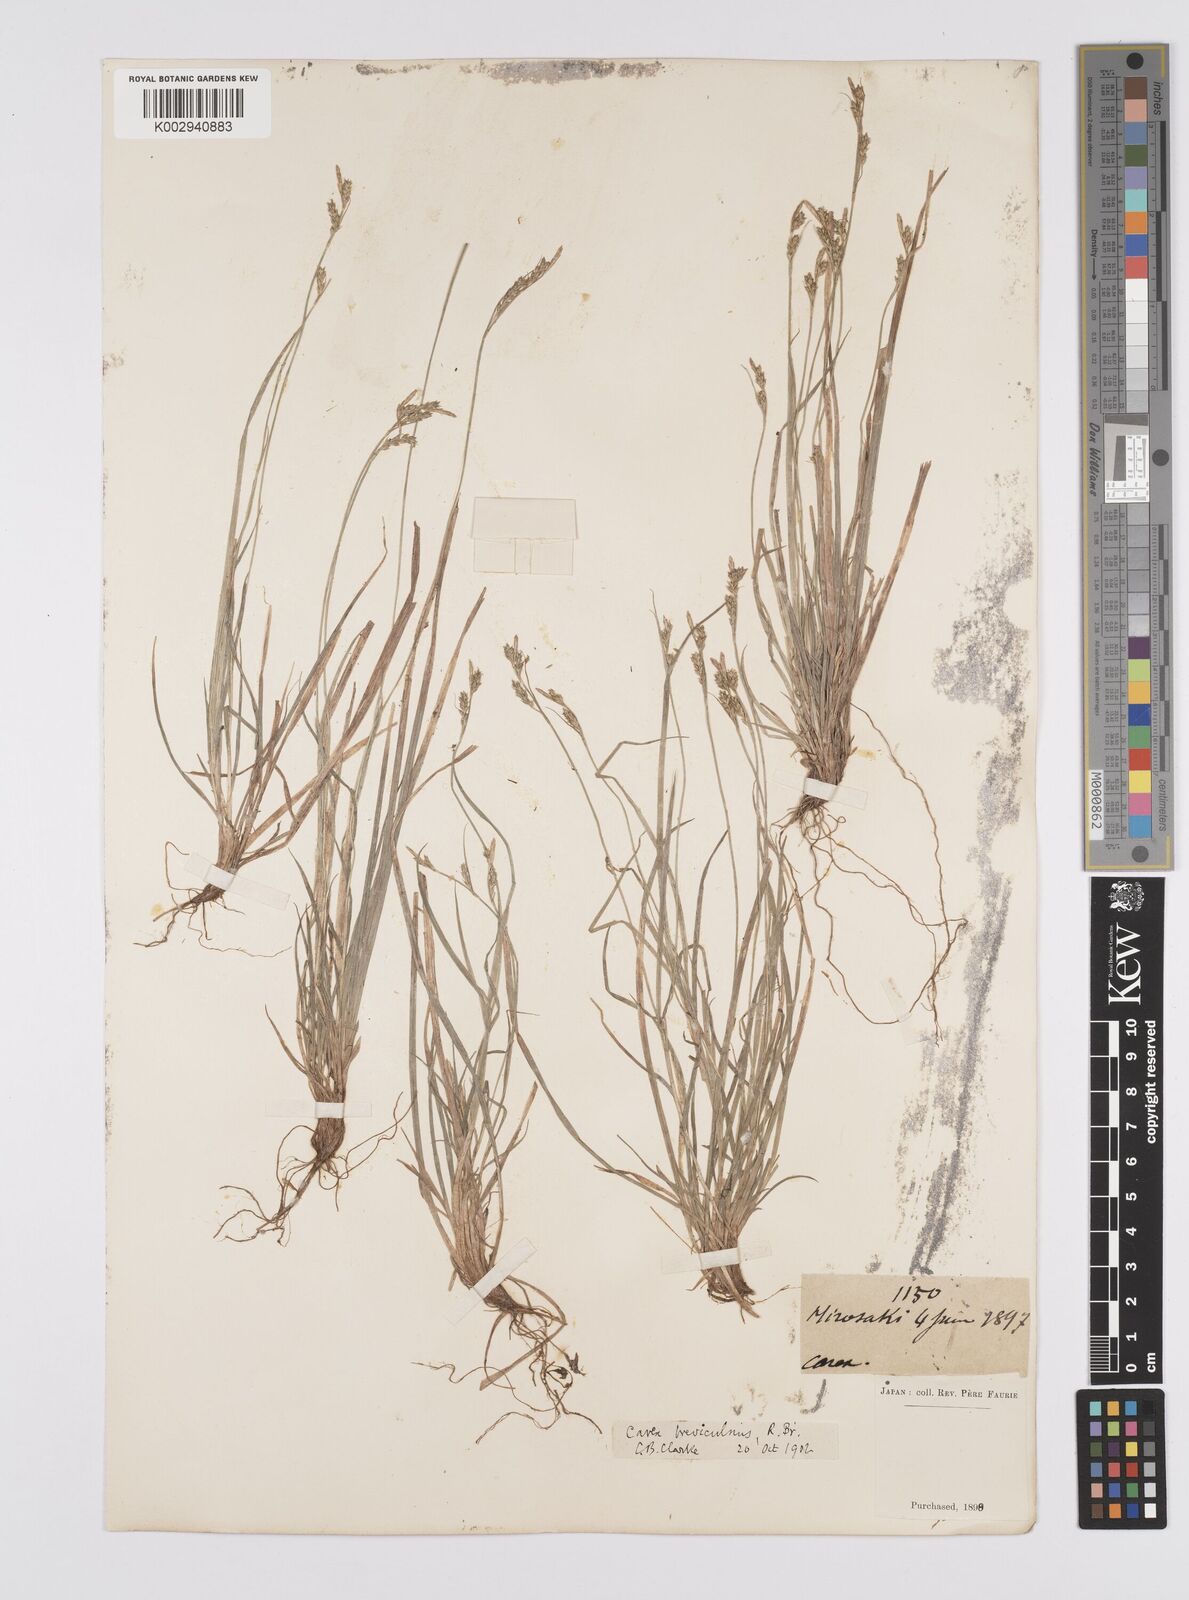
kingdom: Plantae
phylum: Tracheophyta
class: Liliopsida
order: Poales
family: Cyperaceae
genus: Carex
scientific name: Carex breviculmis
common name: Asian shortstem sedge
